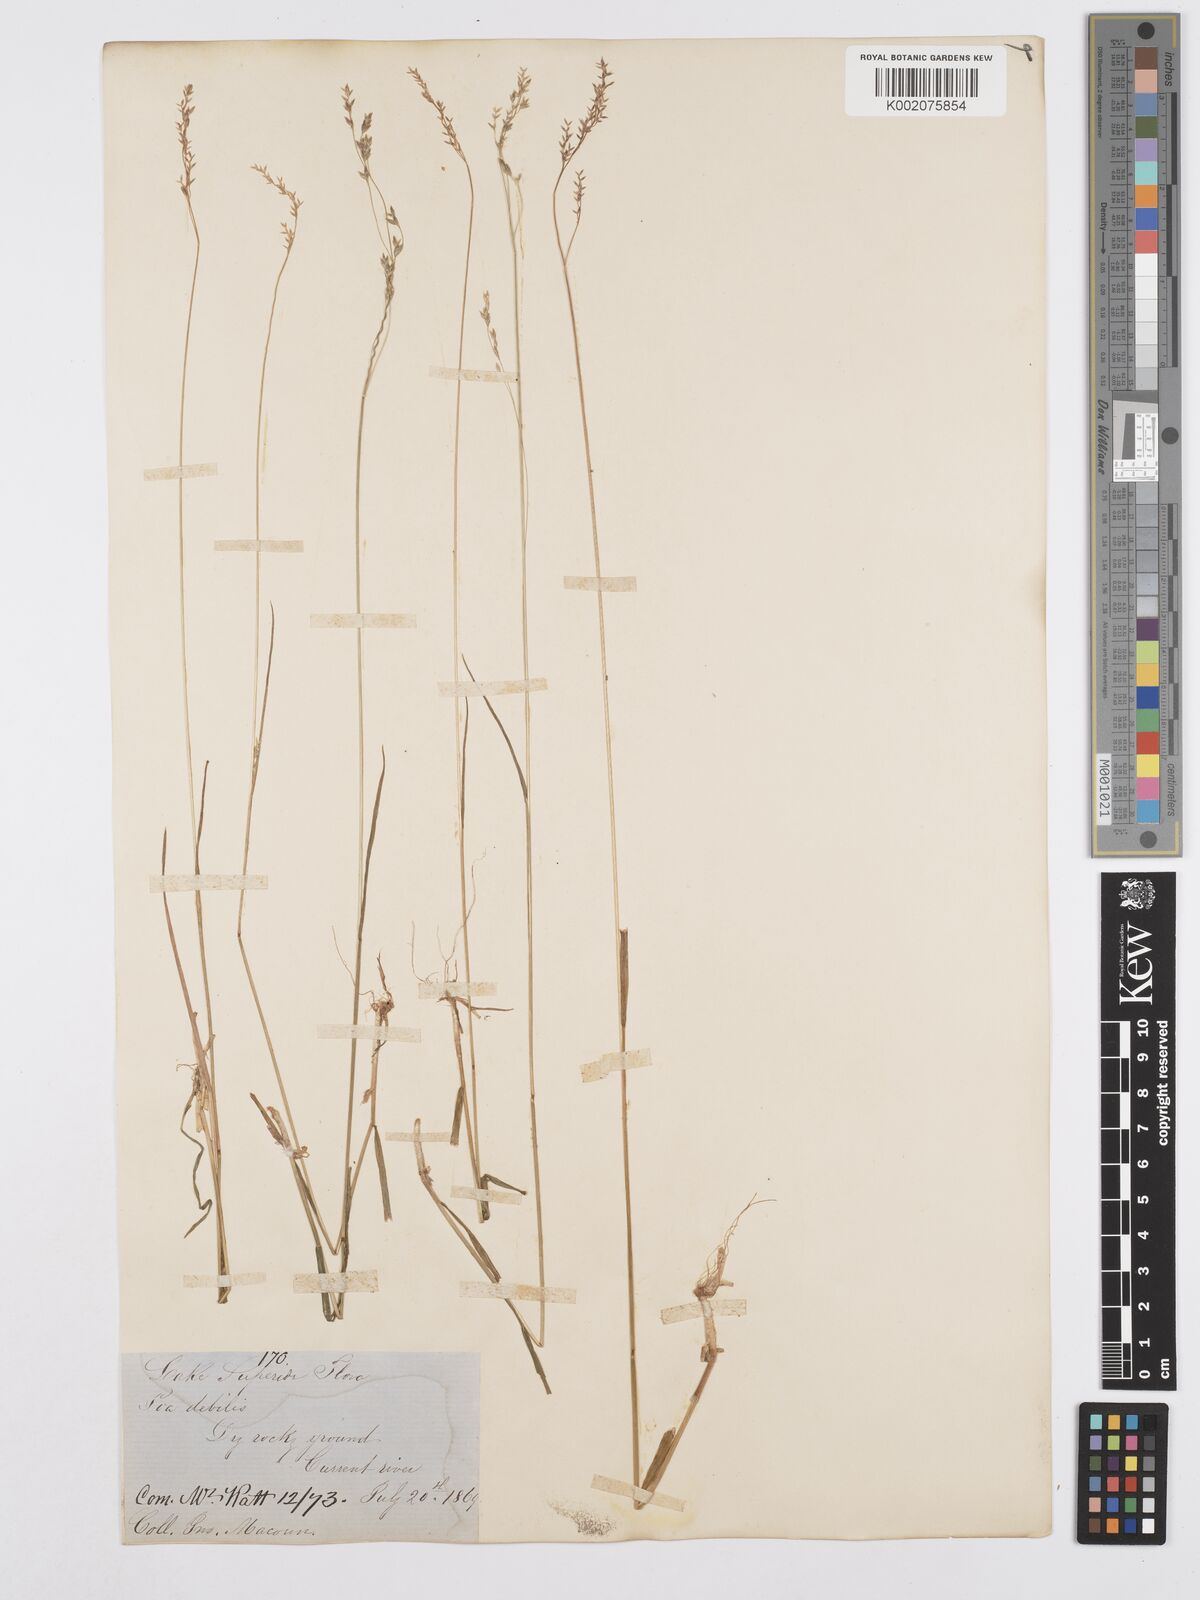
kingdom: Plantae
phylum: Tracheophyta
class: Liliopsida
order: Poales
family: Poaceae
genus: Poa
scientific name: Poa saltuensis
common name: Bushy pasture speargrass
